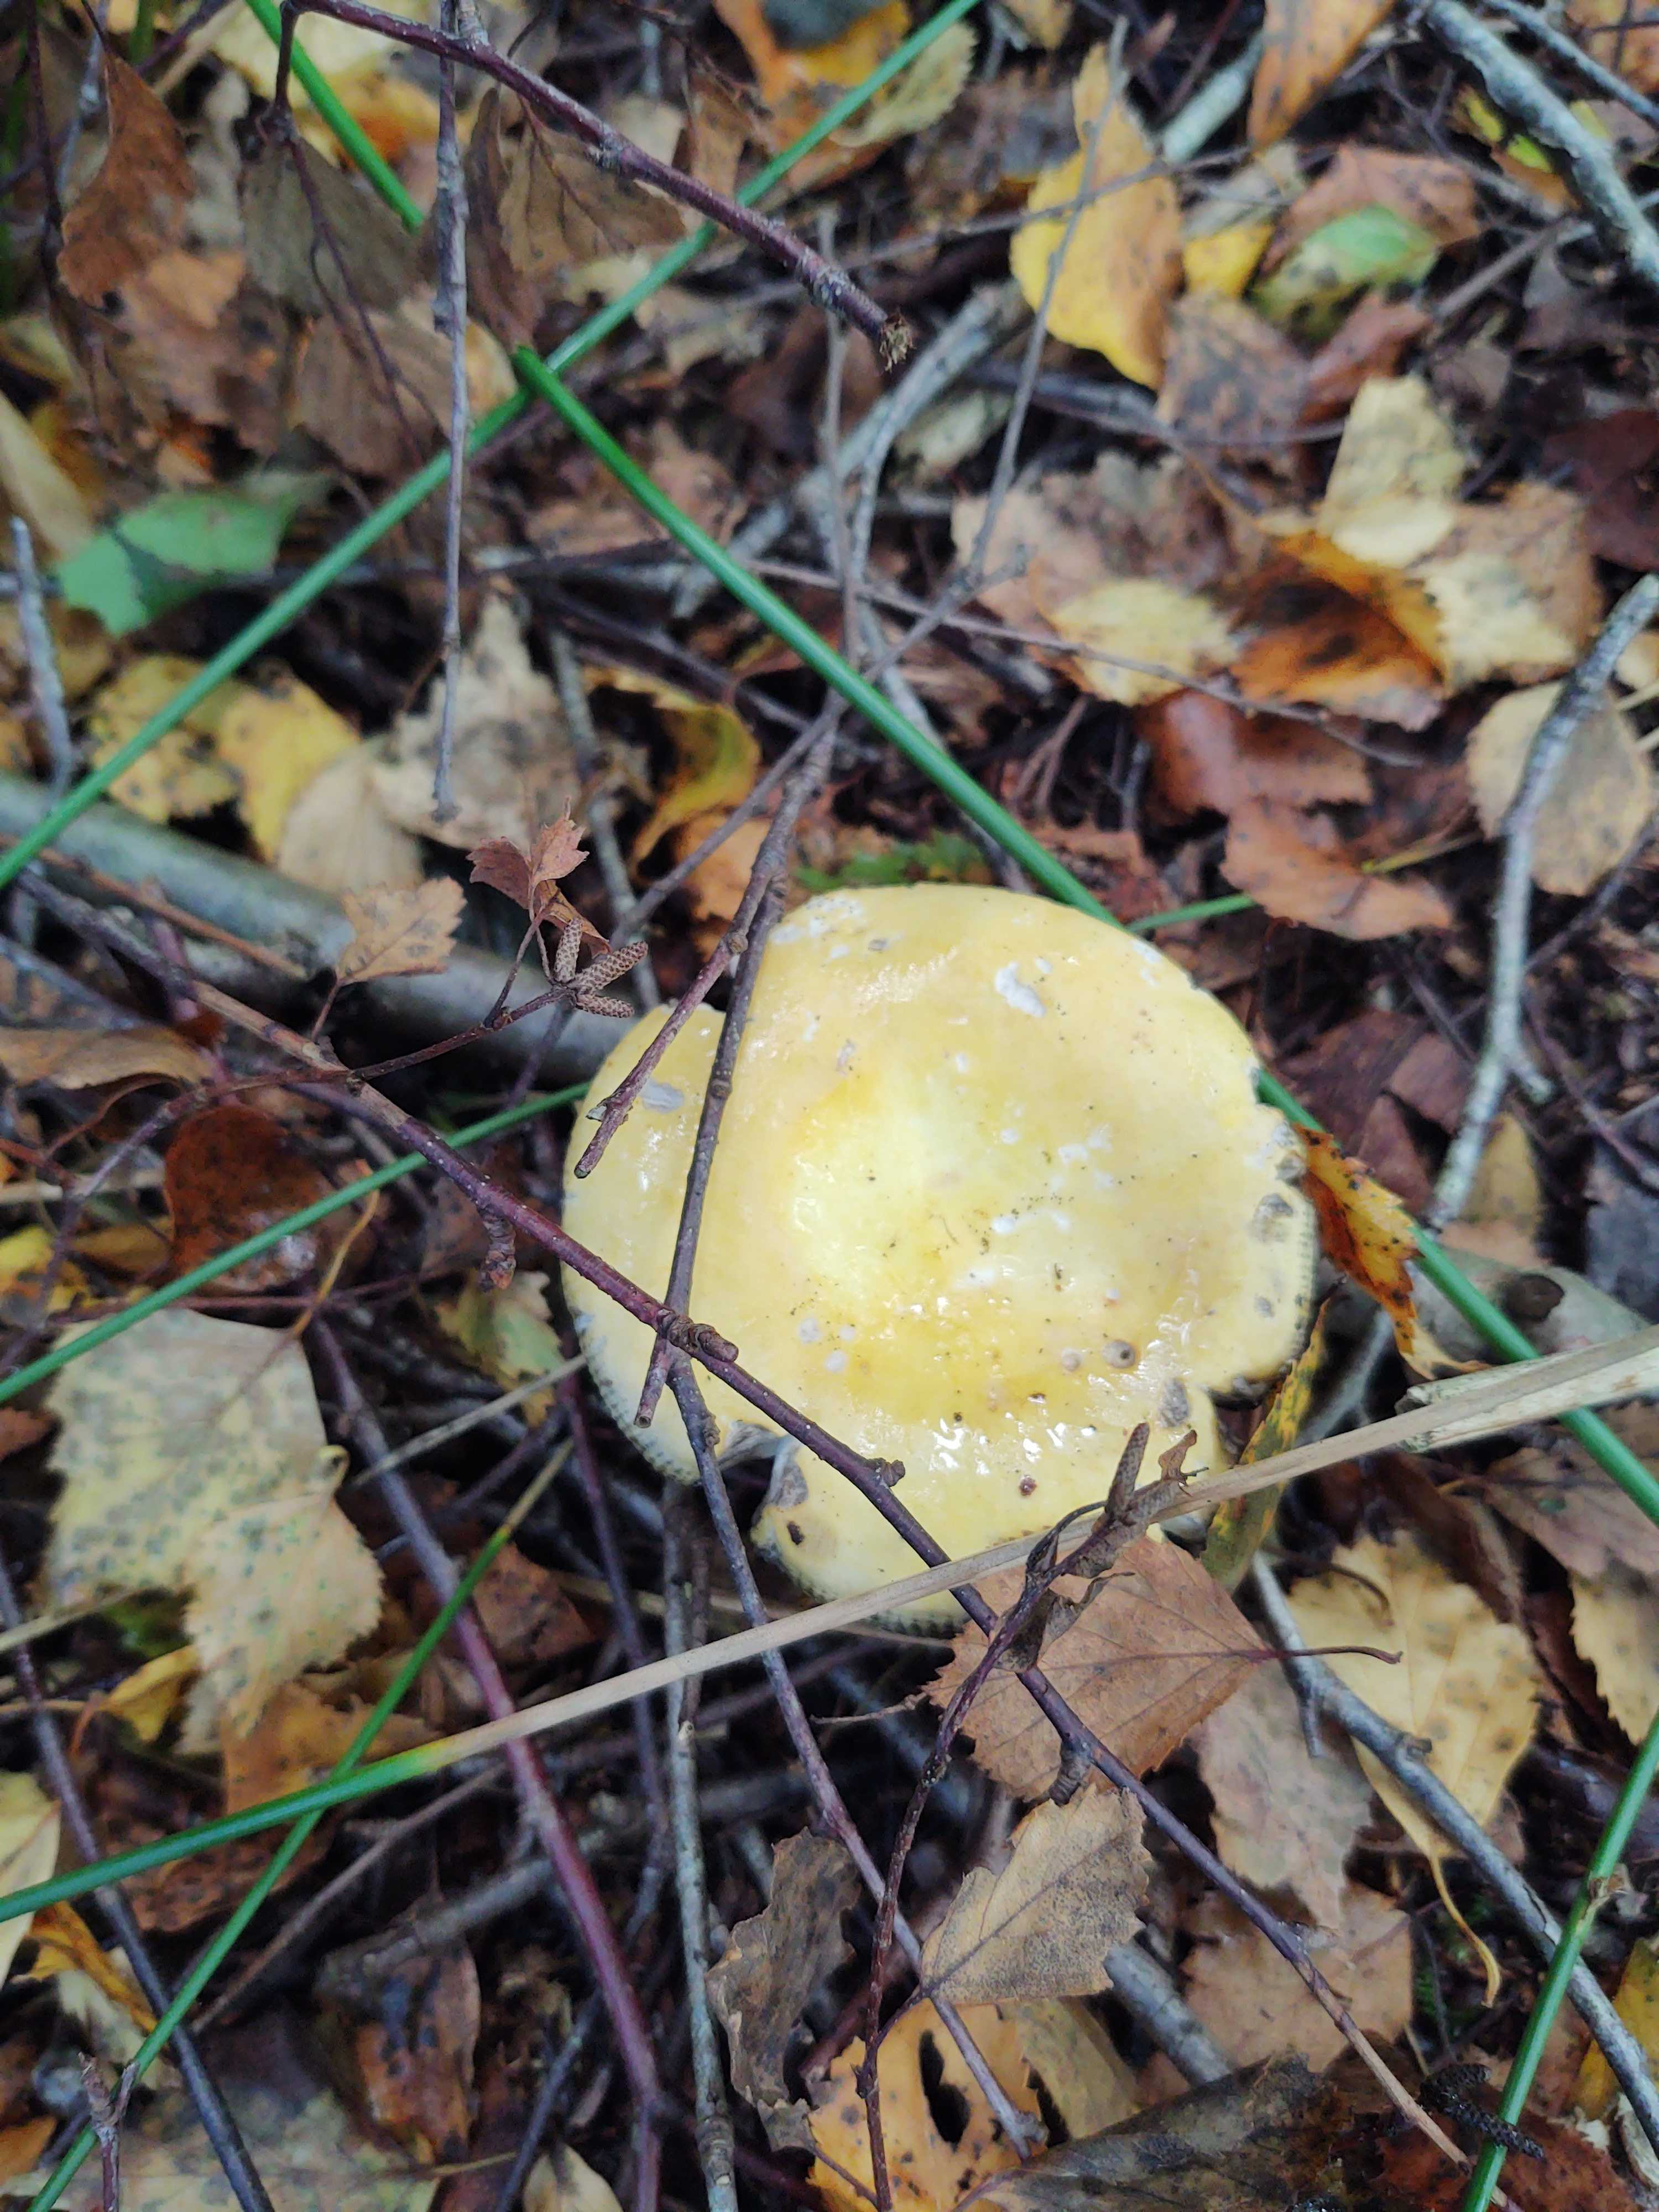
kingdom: Fungi
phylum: Basidiomycota
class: Agaricomycetes
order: Russulales
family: Russulaceae
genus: Russula
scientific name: Russula claroflava
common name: birke-skørhat
